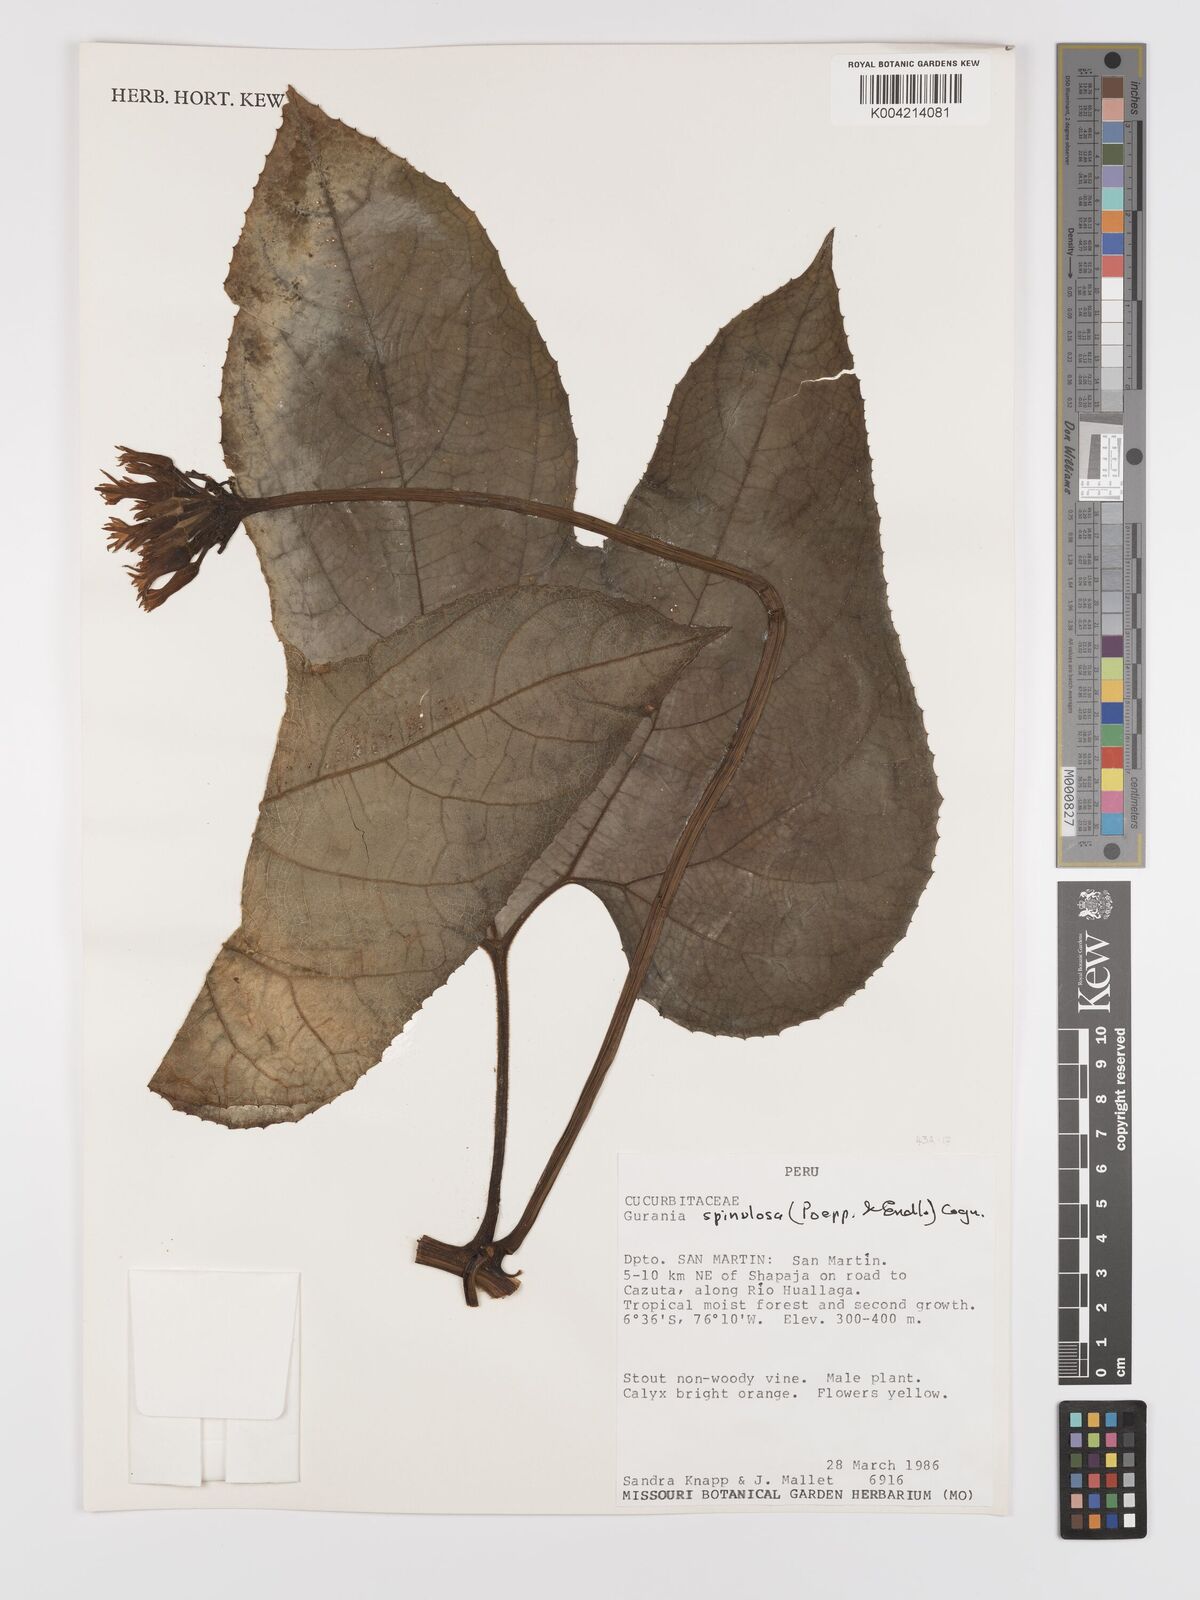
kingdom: Plantae
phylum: Tracheophyta
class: Magnoliopsida
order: Cucurbitales
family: Cucurbitaceae
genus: Gurania
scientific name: Gurania lobata
